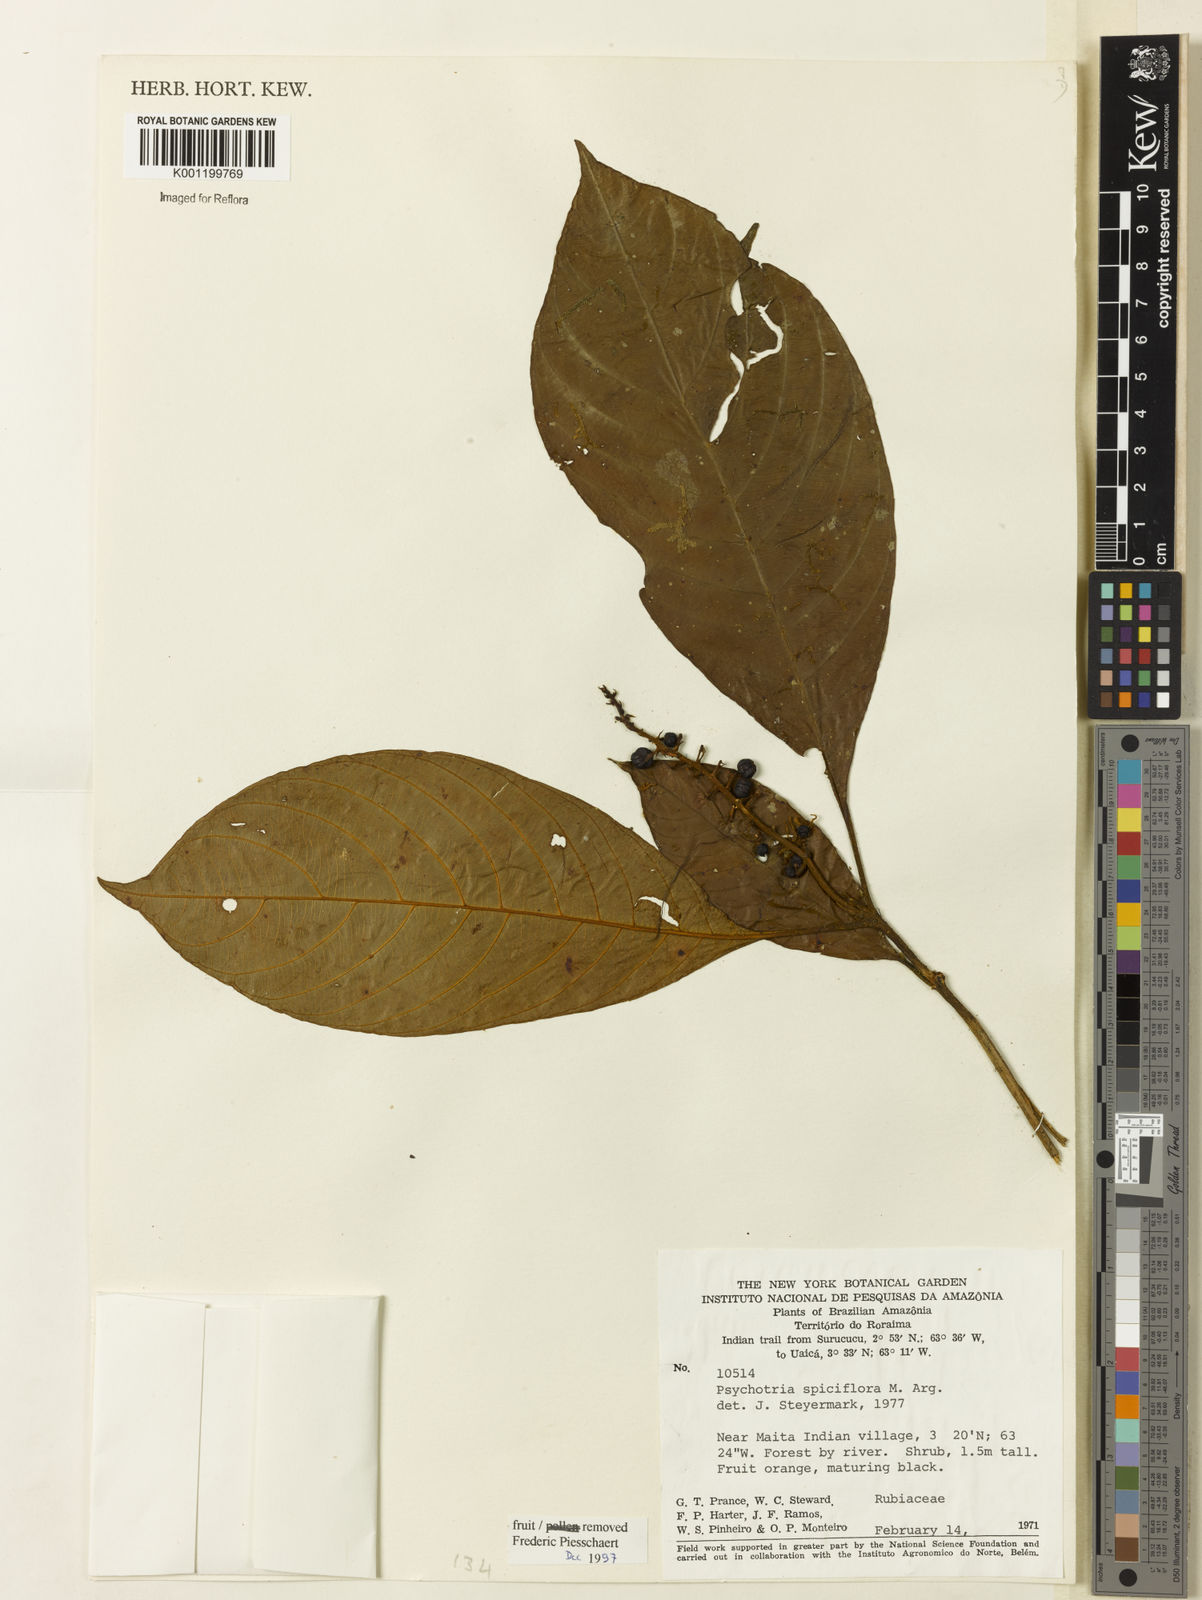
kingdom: Plantae
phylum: Tracheophyta
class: Magnoliopsida
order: Gentianales
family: Rubiaceae
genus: Palicourea
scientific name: Palicourea stenostachya
